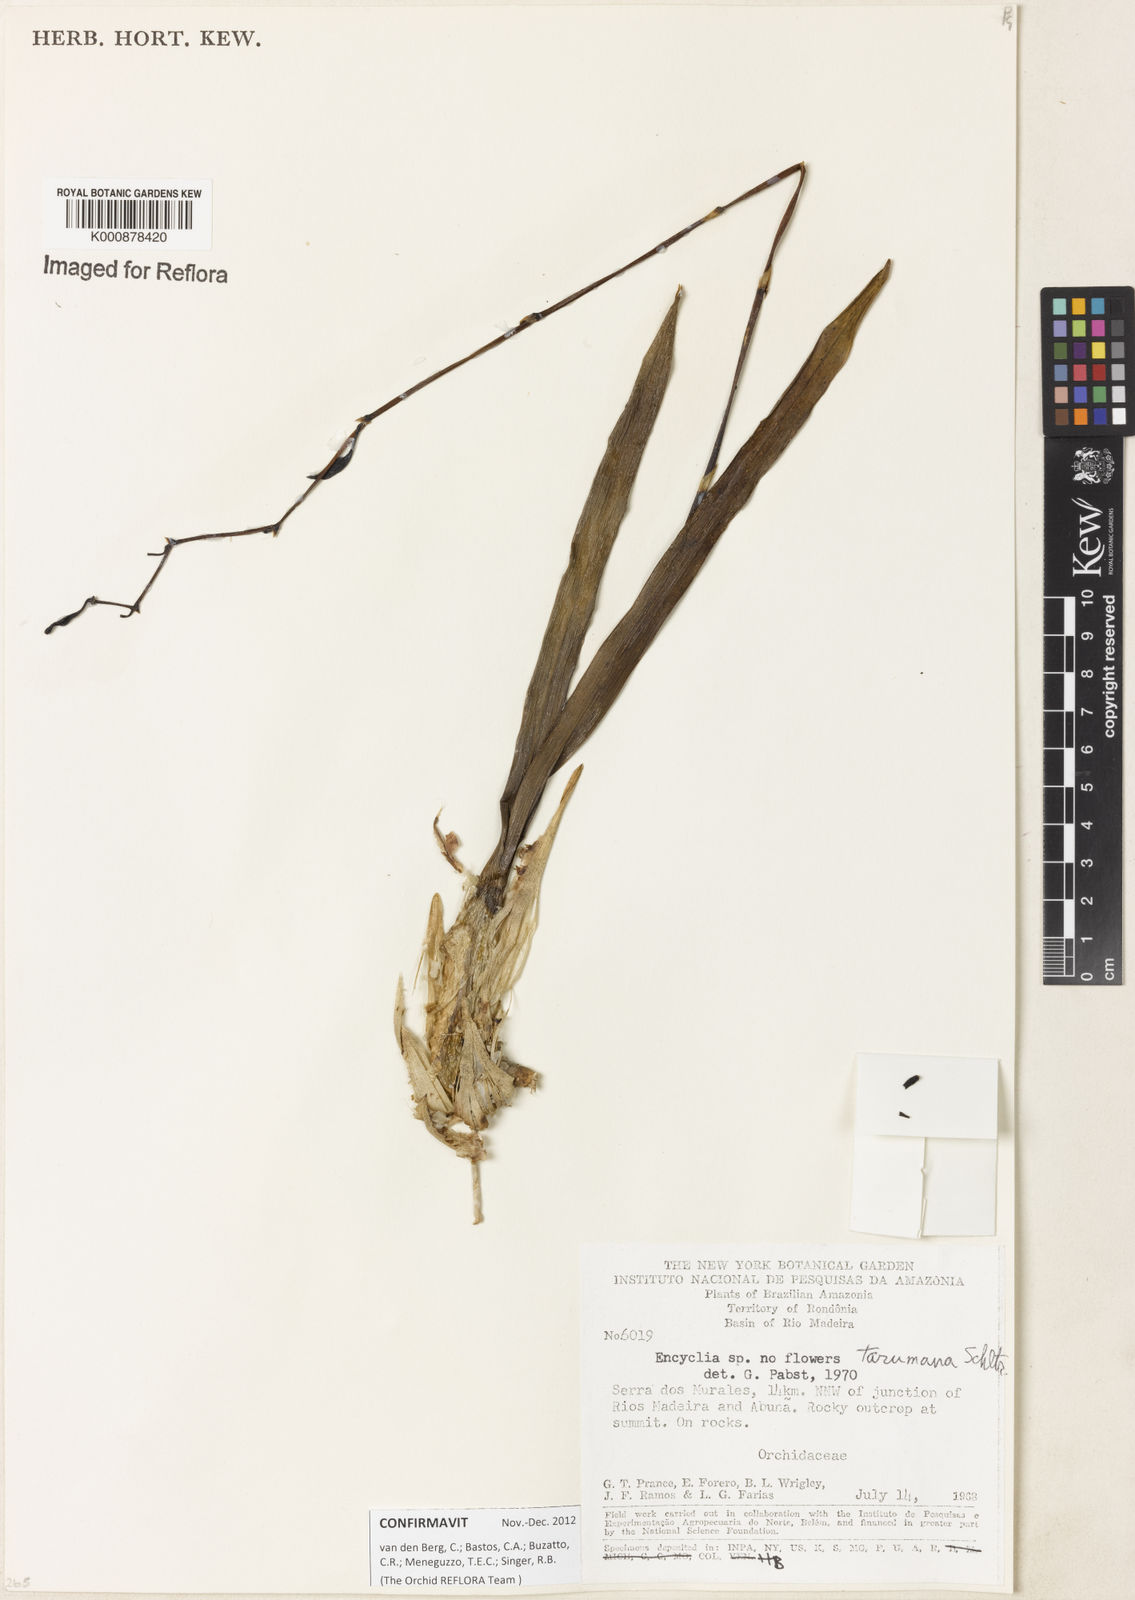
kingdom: Plantae
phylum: Tracheophyta
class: Liliopsida
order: Asparagales
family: Orchidaceae
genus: Encyclia
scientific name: Encyclia mapuerae
